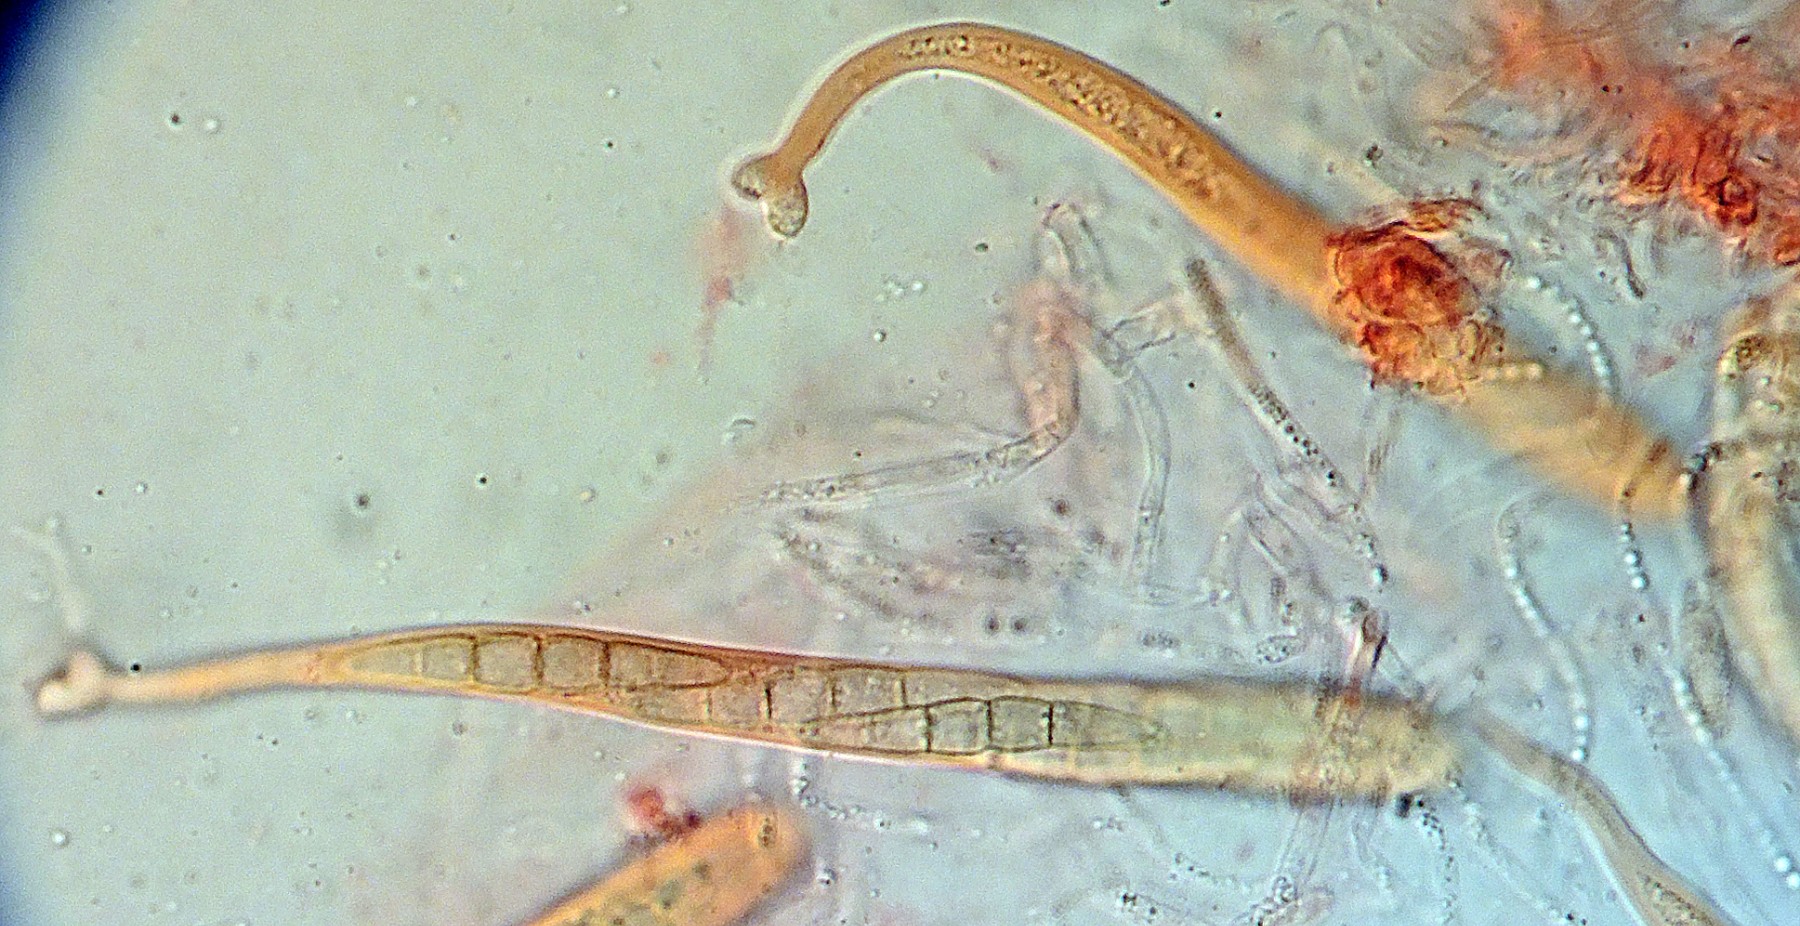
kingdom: Fungi
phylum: Ascomycota
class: Dothideomycetes
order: Pleosporales
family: Phaeosphaeriaceae
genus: Phaeosphaeria
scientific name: Phaeosphaeria caricis
